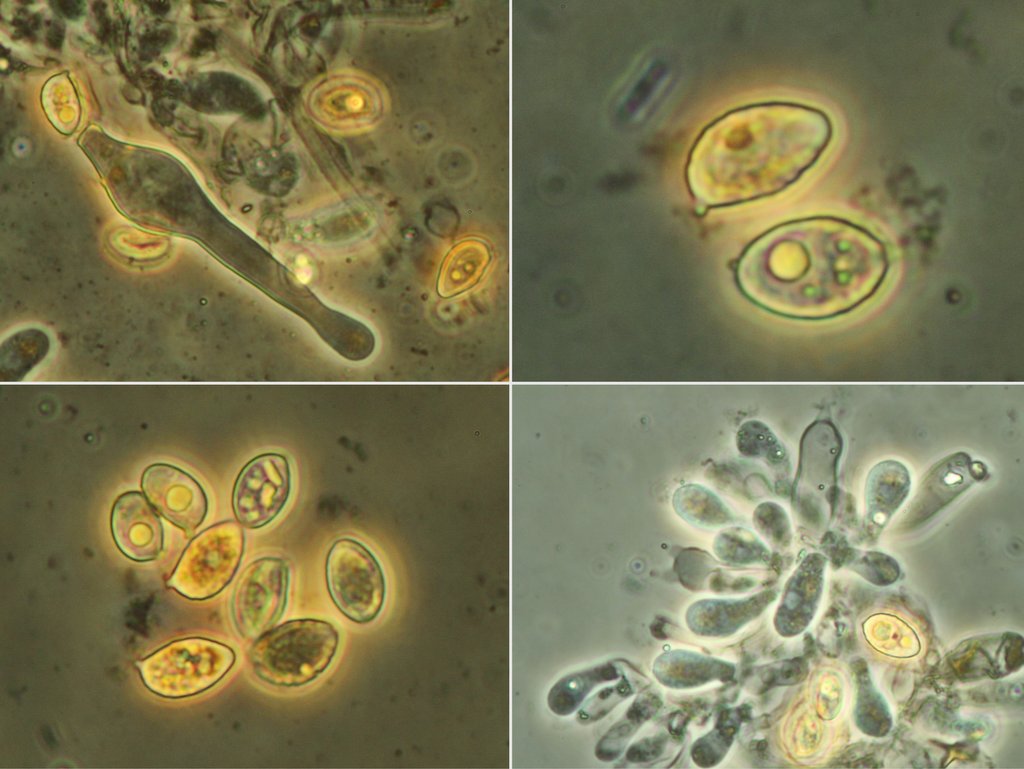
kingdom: Fungi
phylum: Basidiomycota
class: Agaricomycetes
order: Agaricales
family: Hymenogastraceae
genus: Galerina
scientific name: Galerina atkinsoniana
